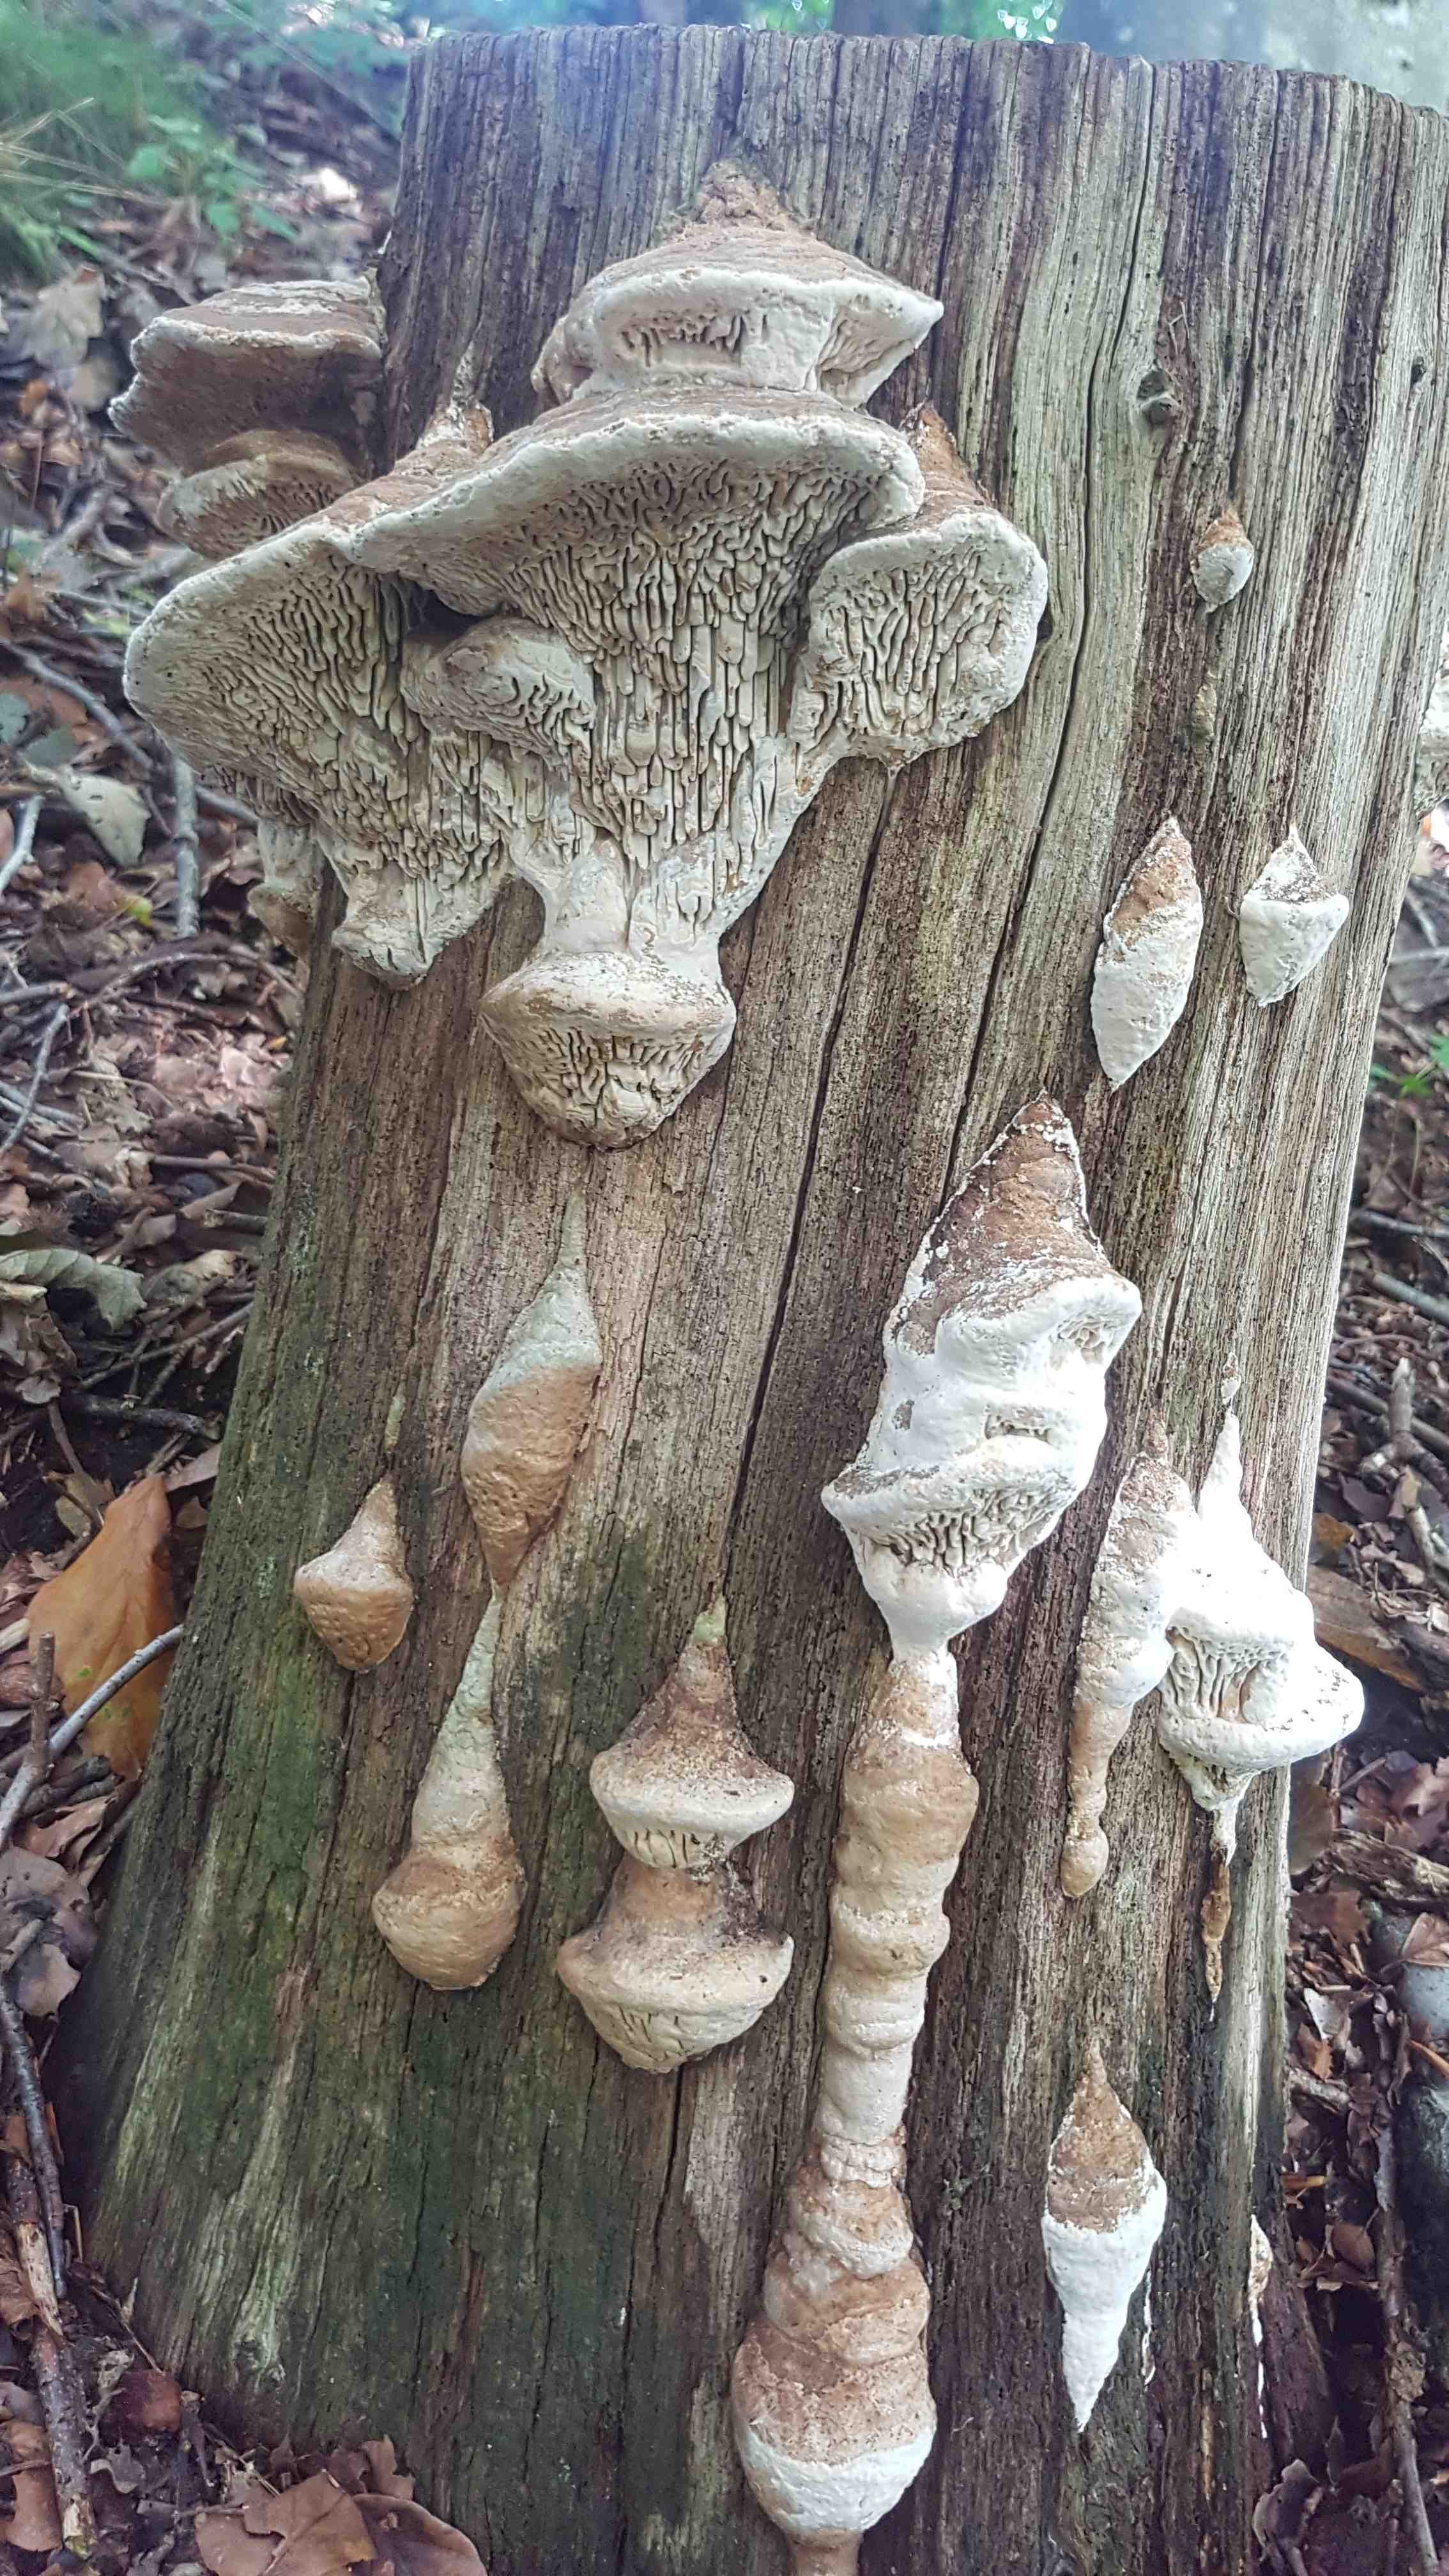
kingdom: Fungi
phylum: Basidiomycota
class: Agaricomycetes
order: Polyporales
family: Fomitopsidaceae
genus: Daedalea
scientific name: Daedalea quercina
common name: ege-labyrintsvamp
